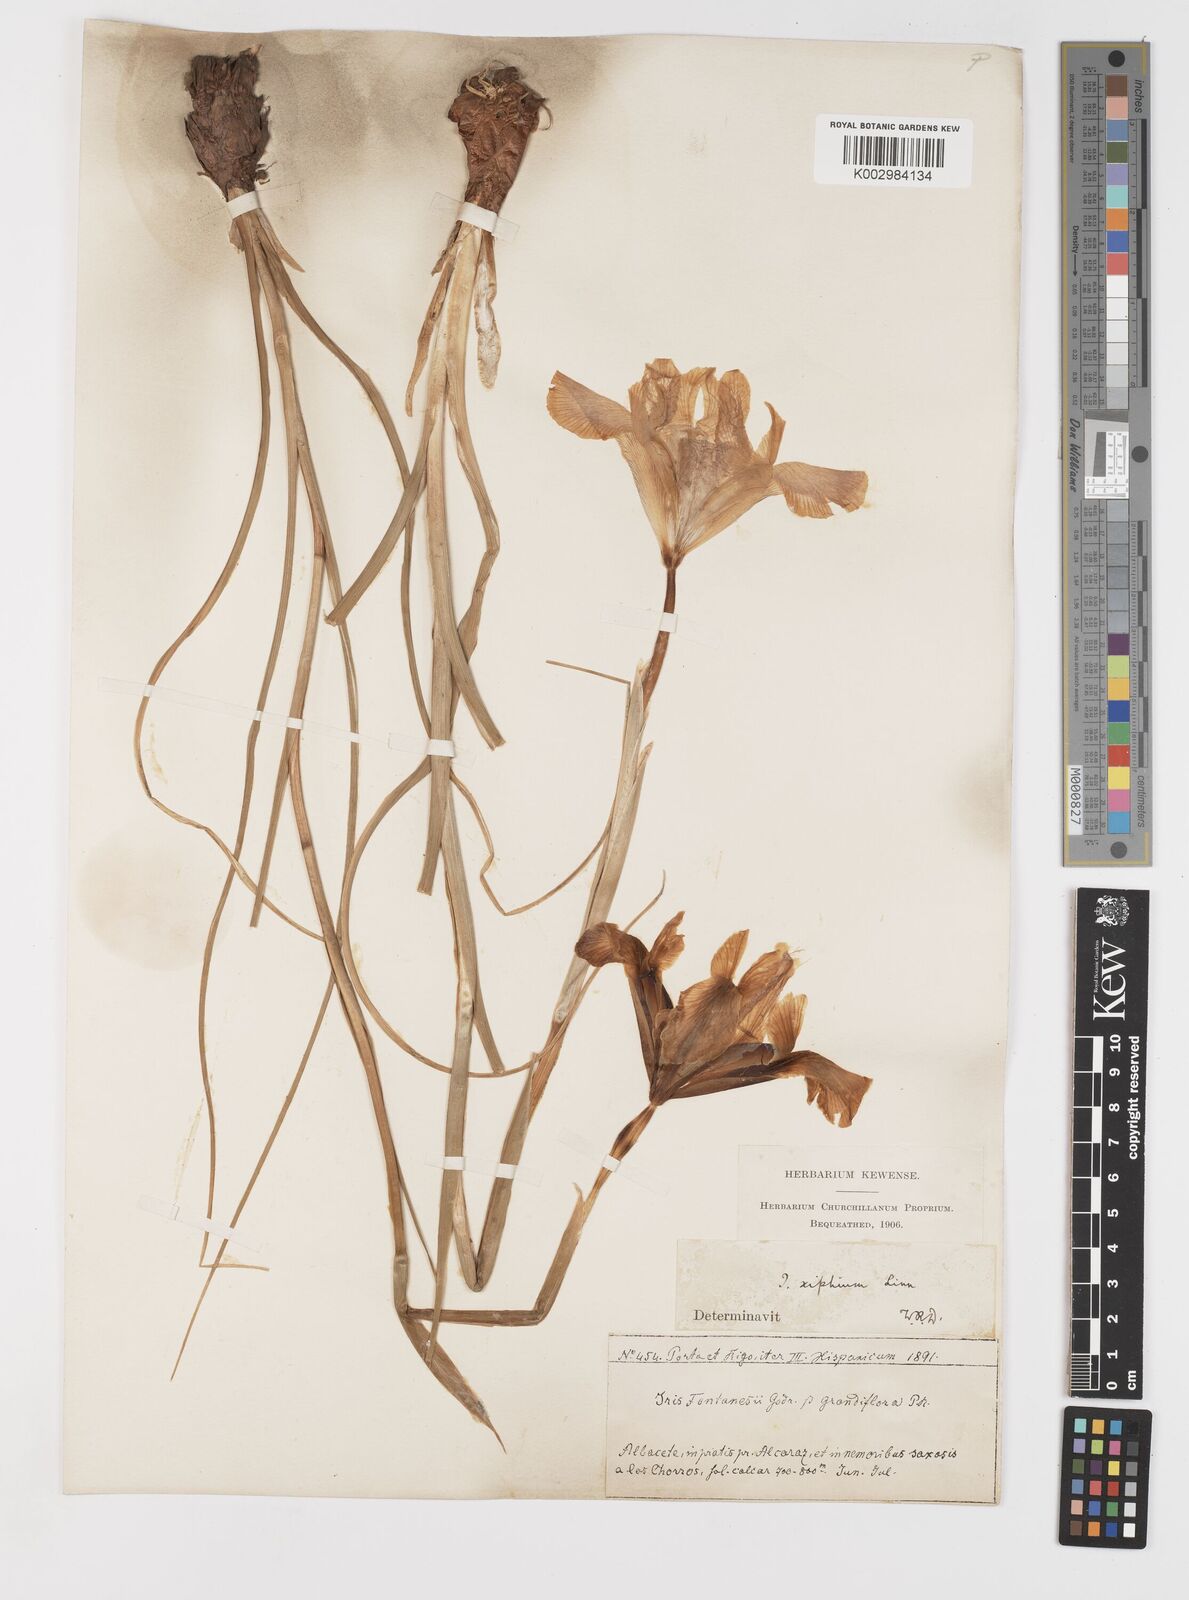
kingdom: Plantae
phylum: Tracheophyta
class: Liliopsida
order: Asparagales
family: Iridaceae
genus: Iris
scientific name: Iris xiphium
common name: Spanish iris
